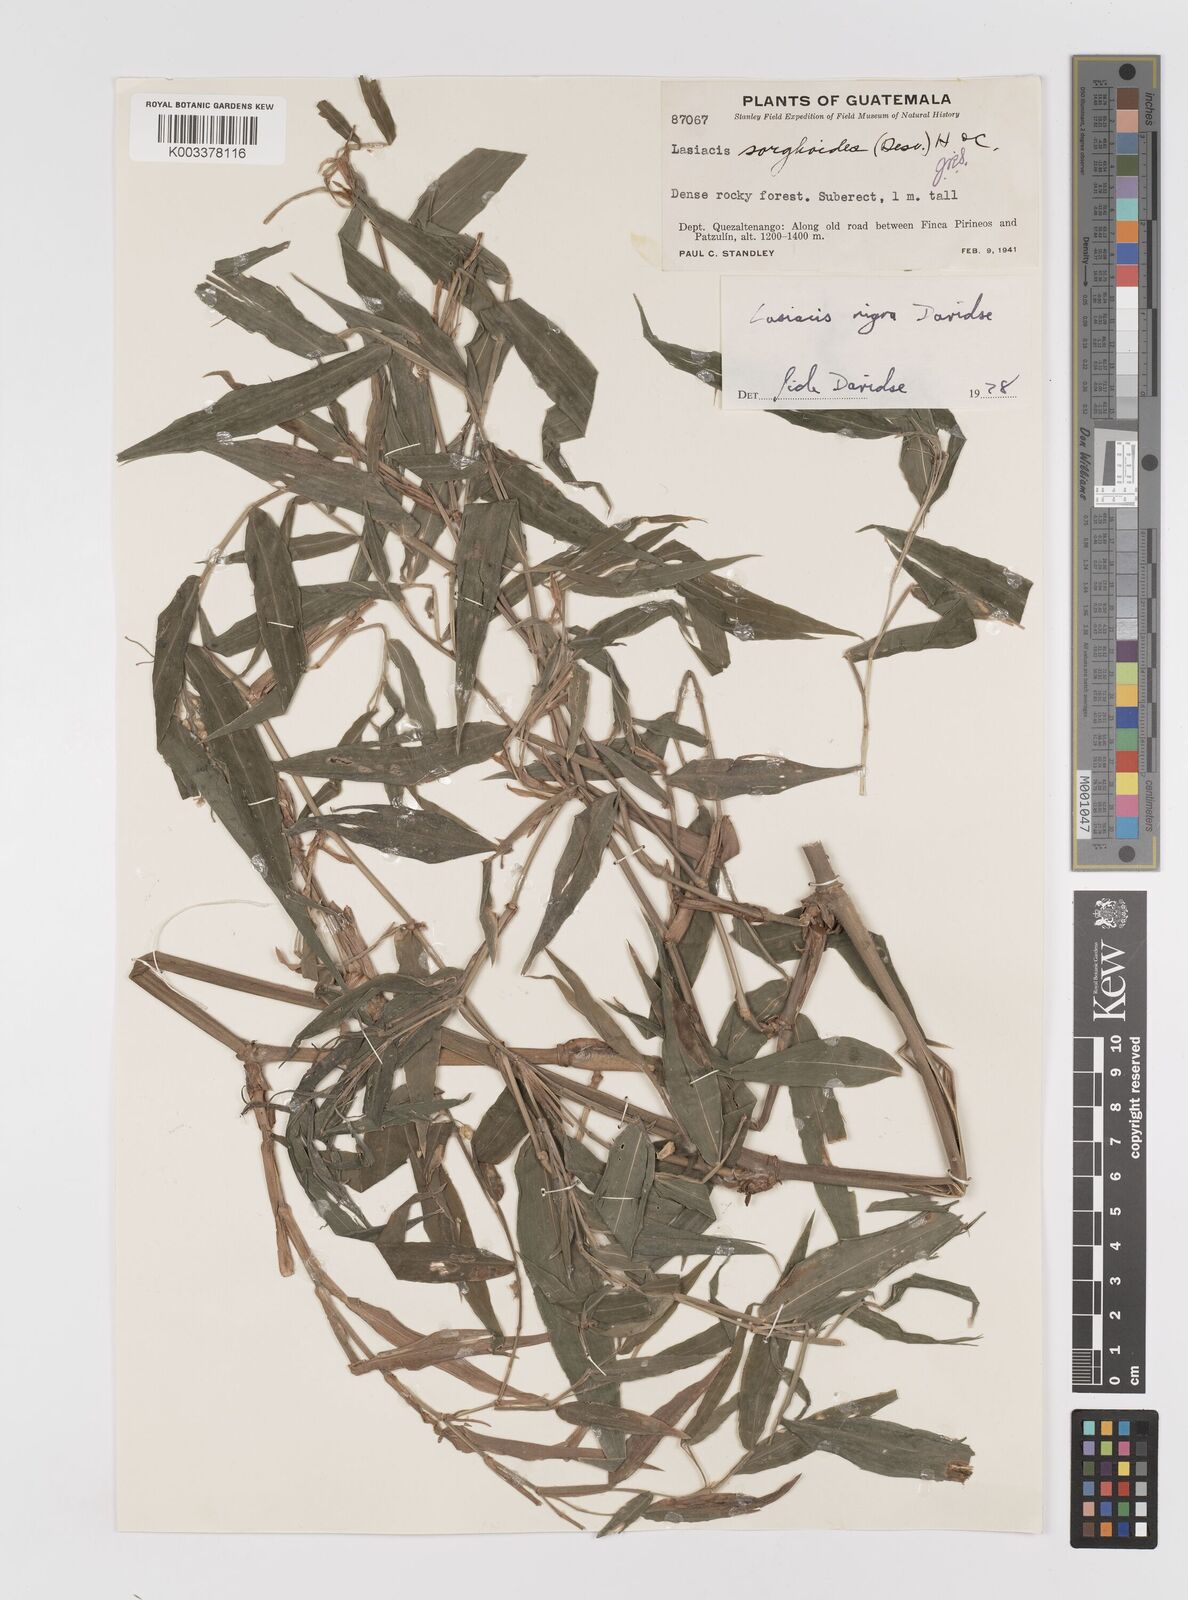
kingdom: Plantae
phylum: Tracheophyta
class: Liliopsida
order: Poales
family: Poaceae
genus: Lasiacis
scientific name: Lasiacis nigra
